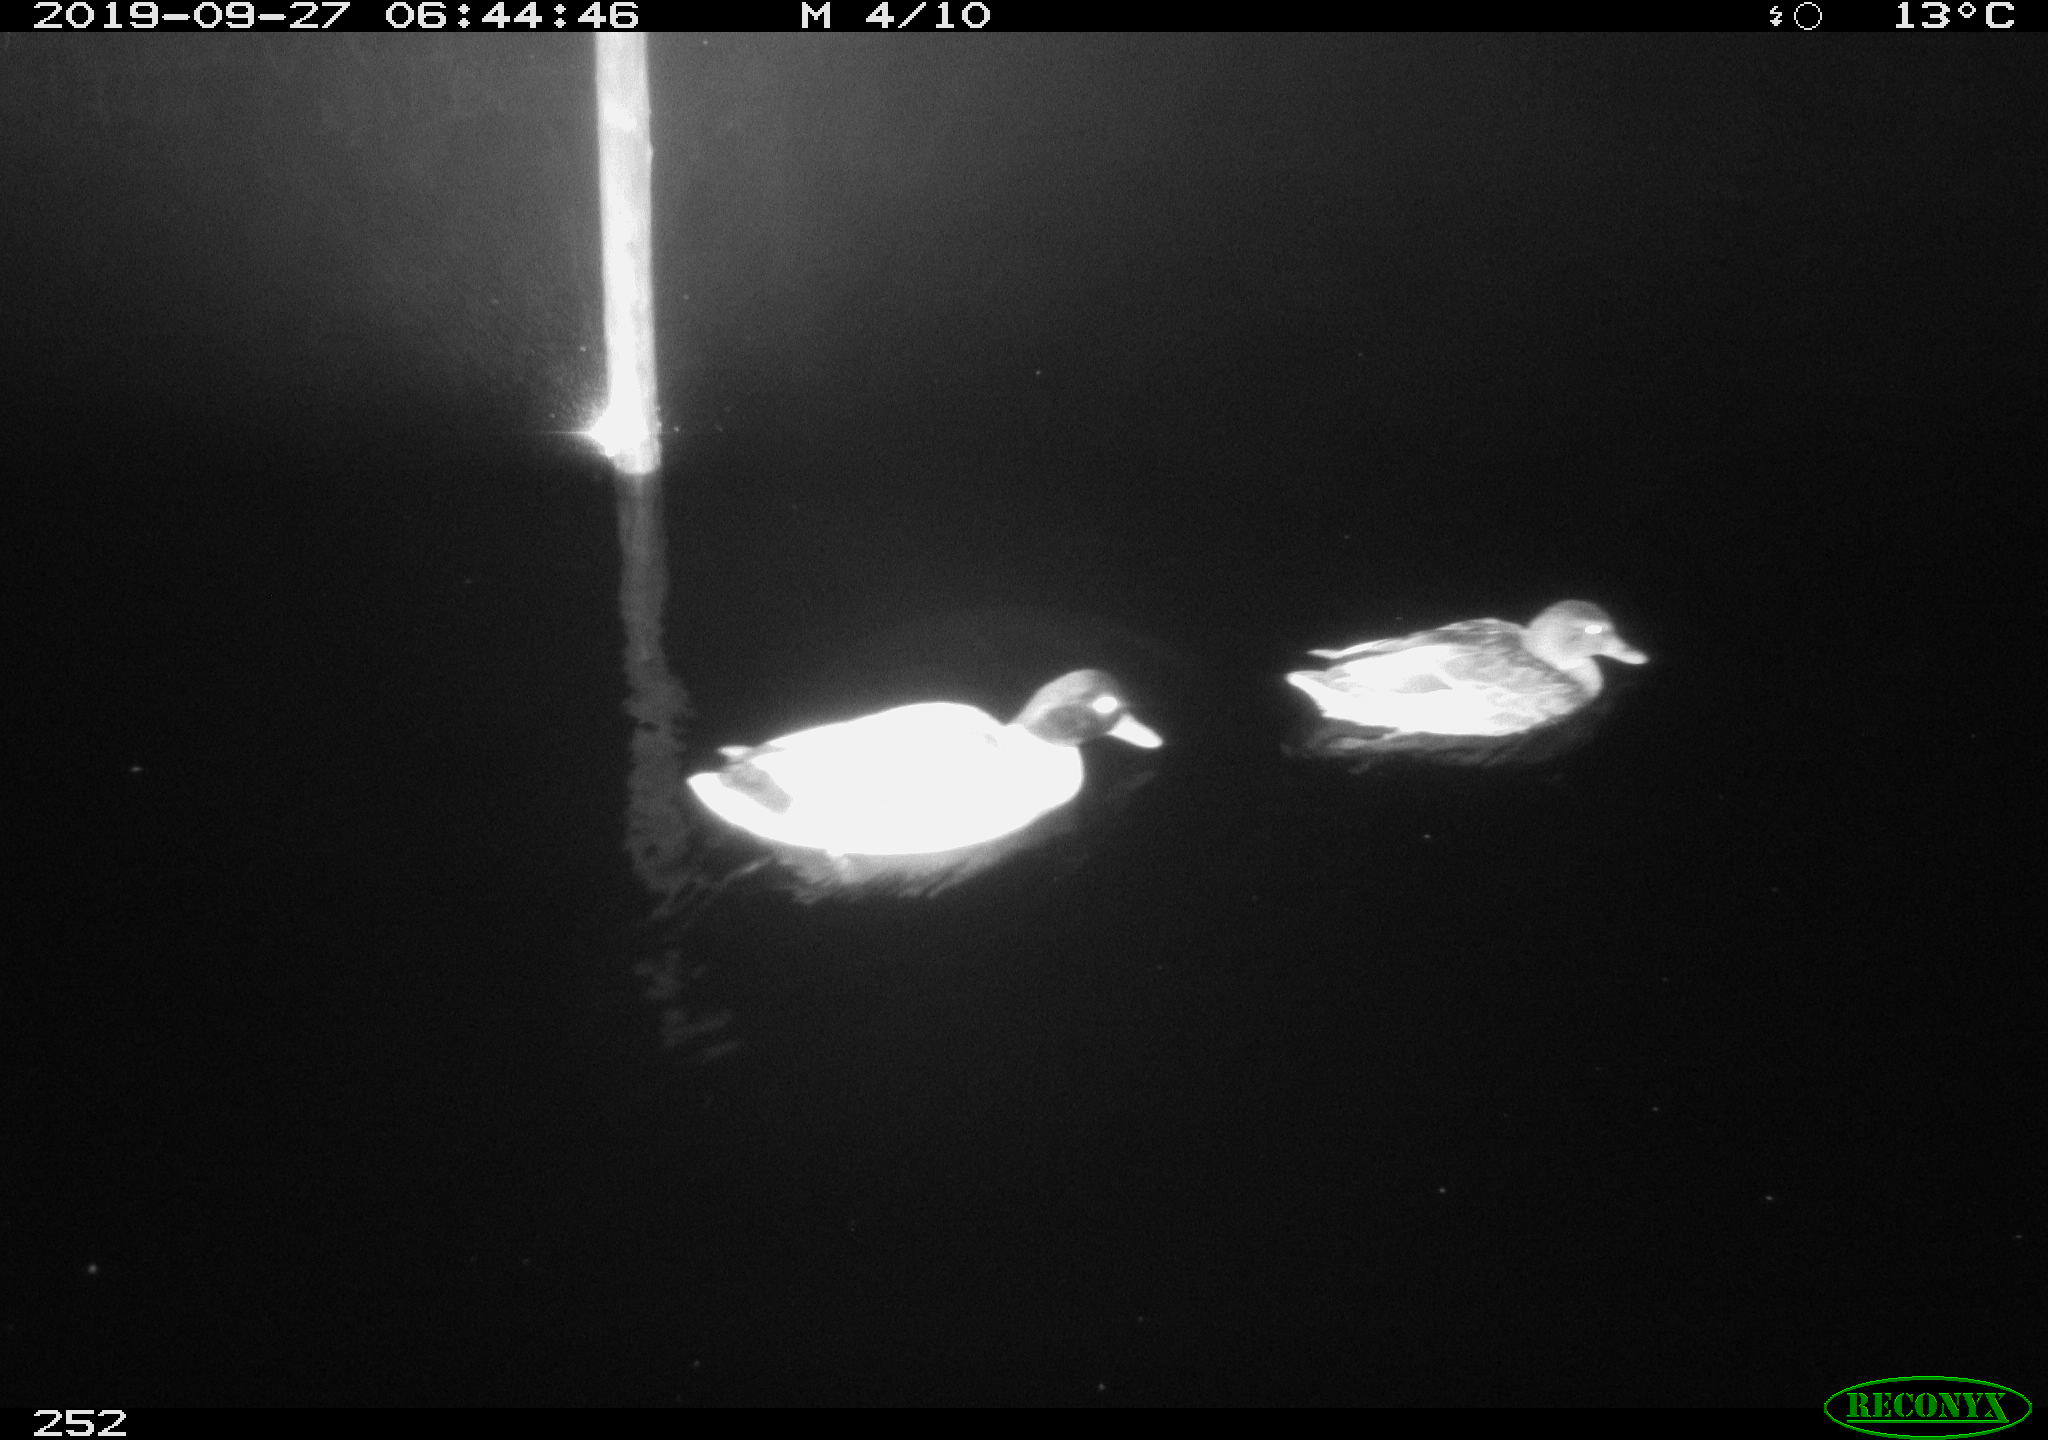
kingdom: Animalia
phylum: Chordata
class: Aves
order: Anseriformes
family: Anatidae
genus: Anas
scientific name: Anas platyrhynchos
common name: Mallard
